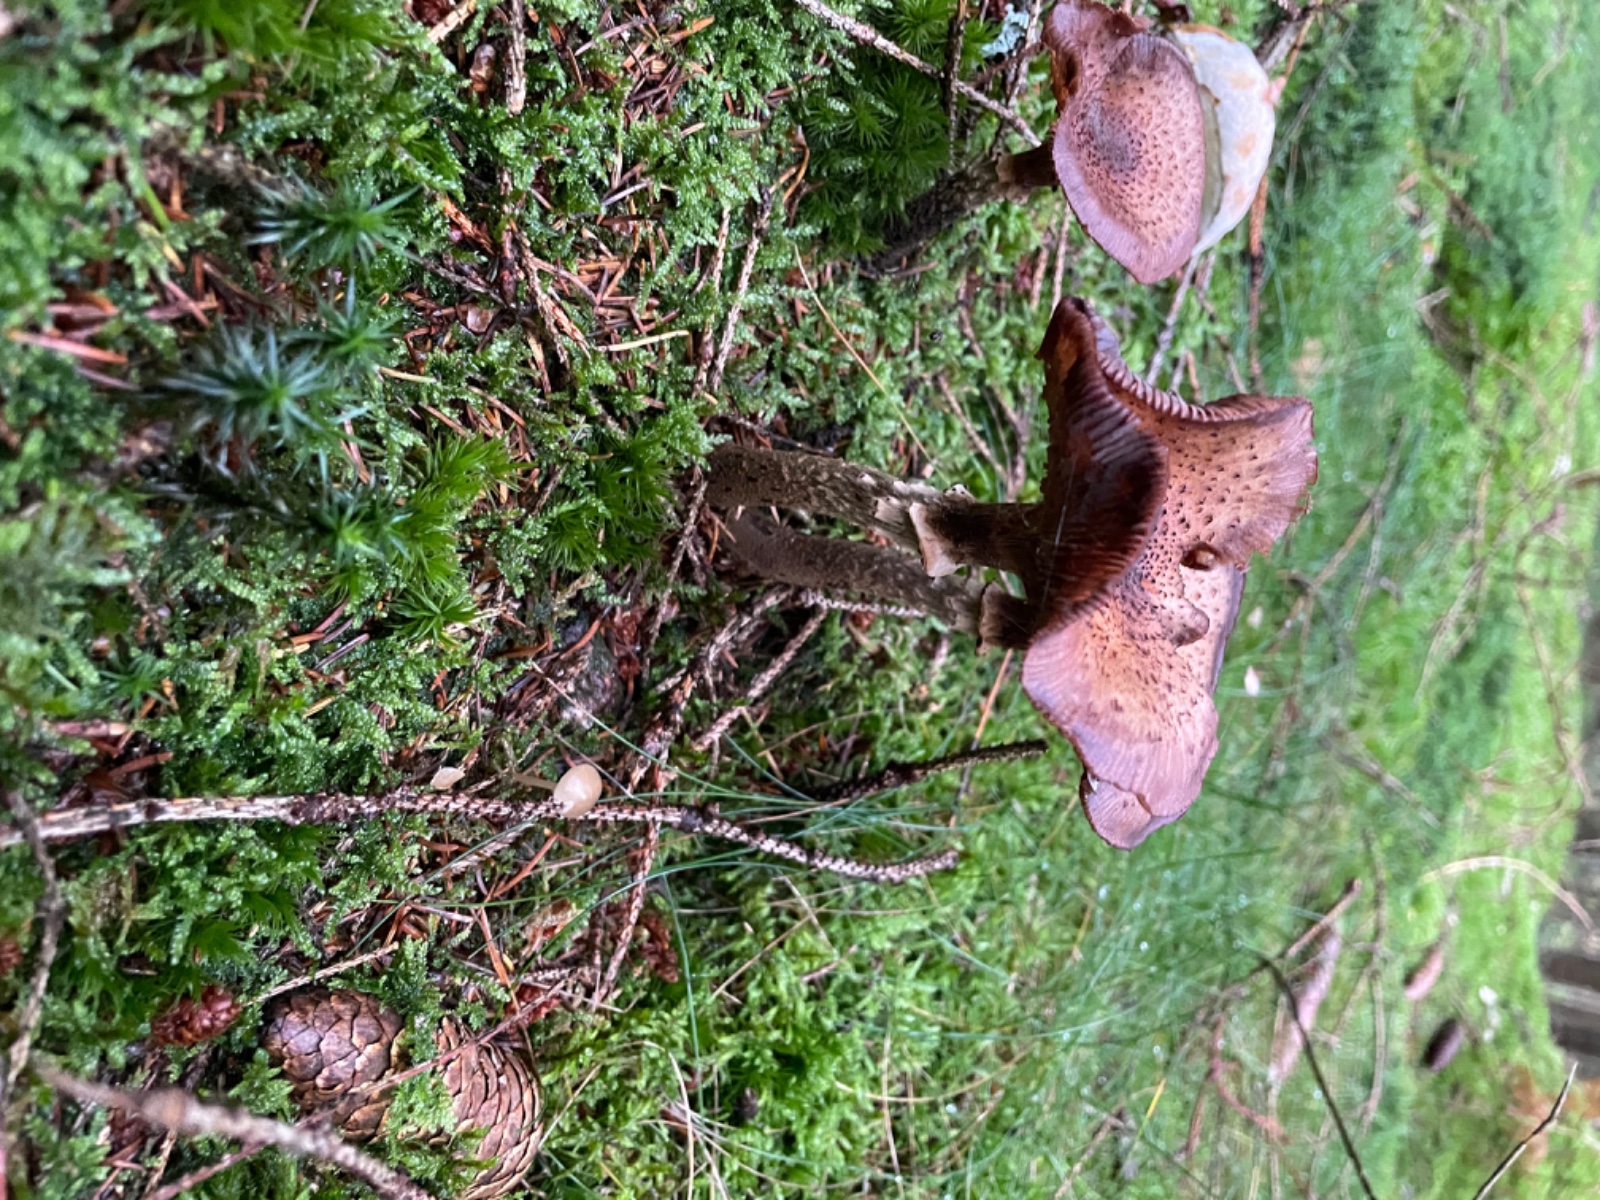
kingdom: Fungi
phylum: Basidiomycota
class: Agaricomycetes
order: Agaricales
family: Physalacriaceae
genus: Armillaria
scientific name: Armillaria ostoyae
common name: mørk honningsvamp
